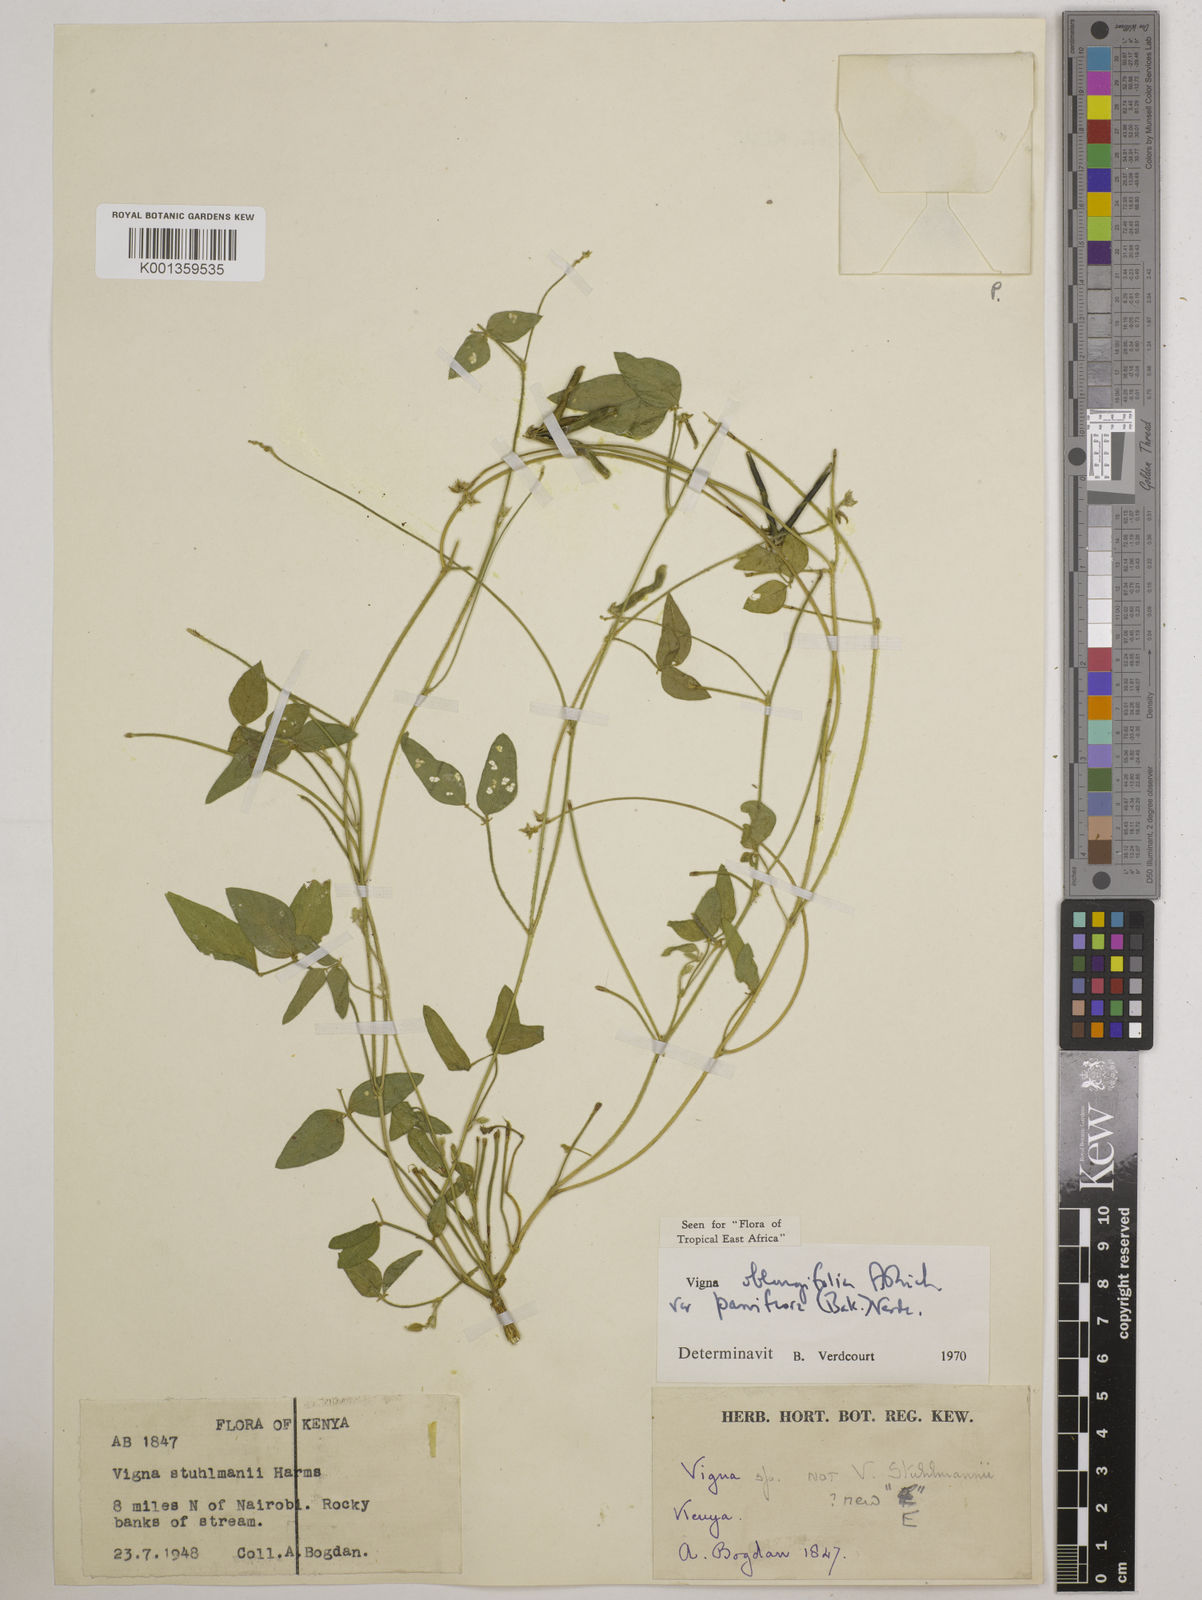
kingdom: Plantae
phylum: Tracheophyta
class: Magnoliopsida
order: Fabales
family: Fabaceae
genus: Vigna
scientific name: Vigna
